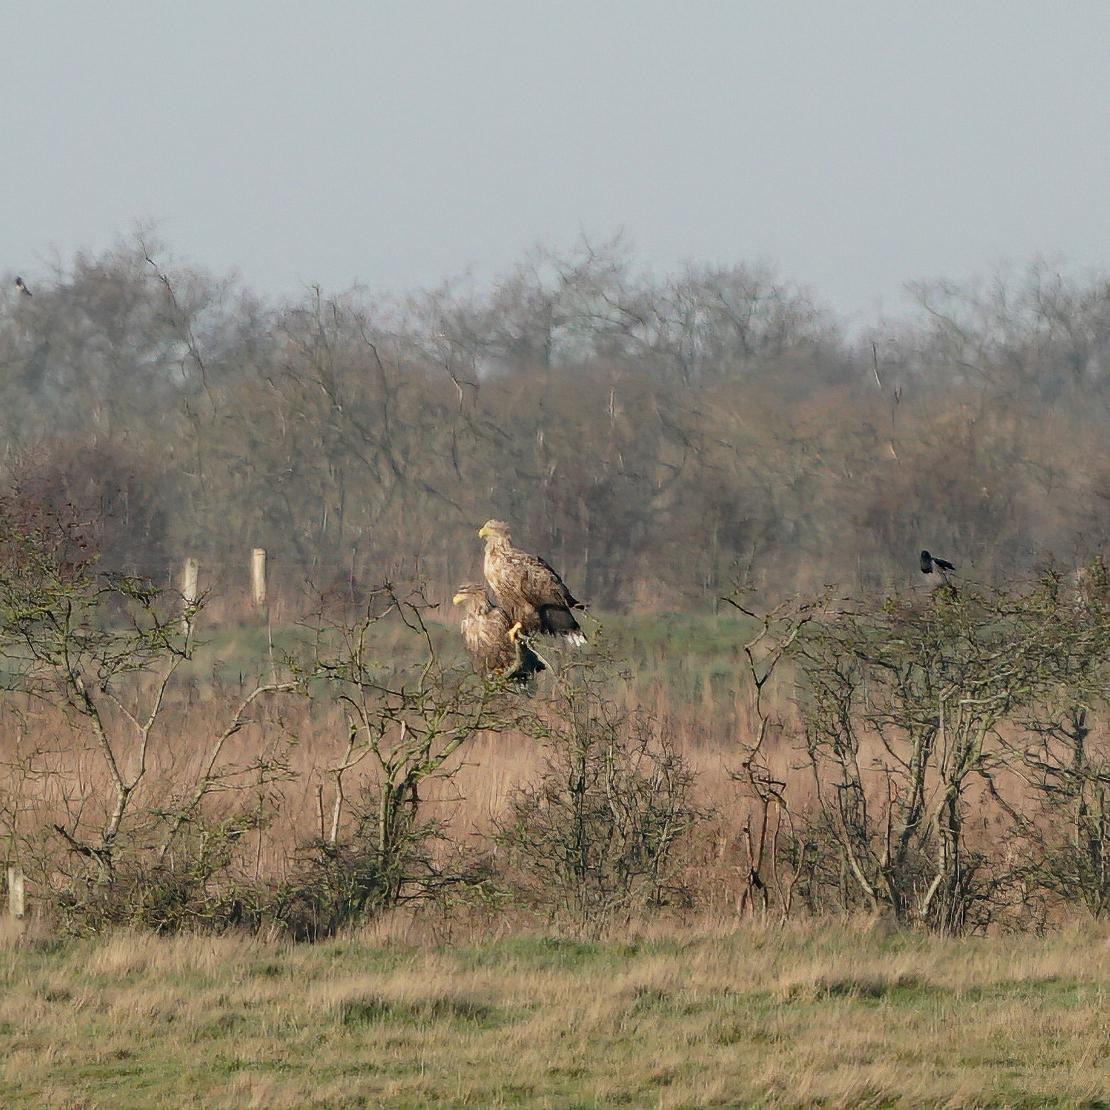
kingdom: Animalia
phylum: Chordata
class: Aves
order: Accipitriformes
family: Accipitridae
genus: Haliaeetus
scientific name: Haliaeetus albicilla
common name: Havørn
